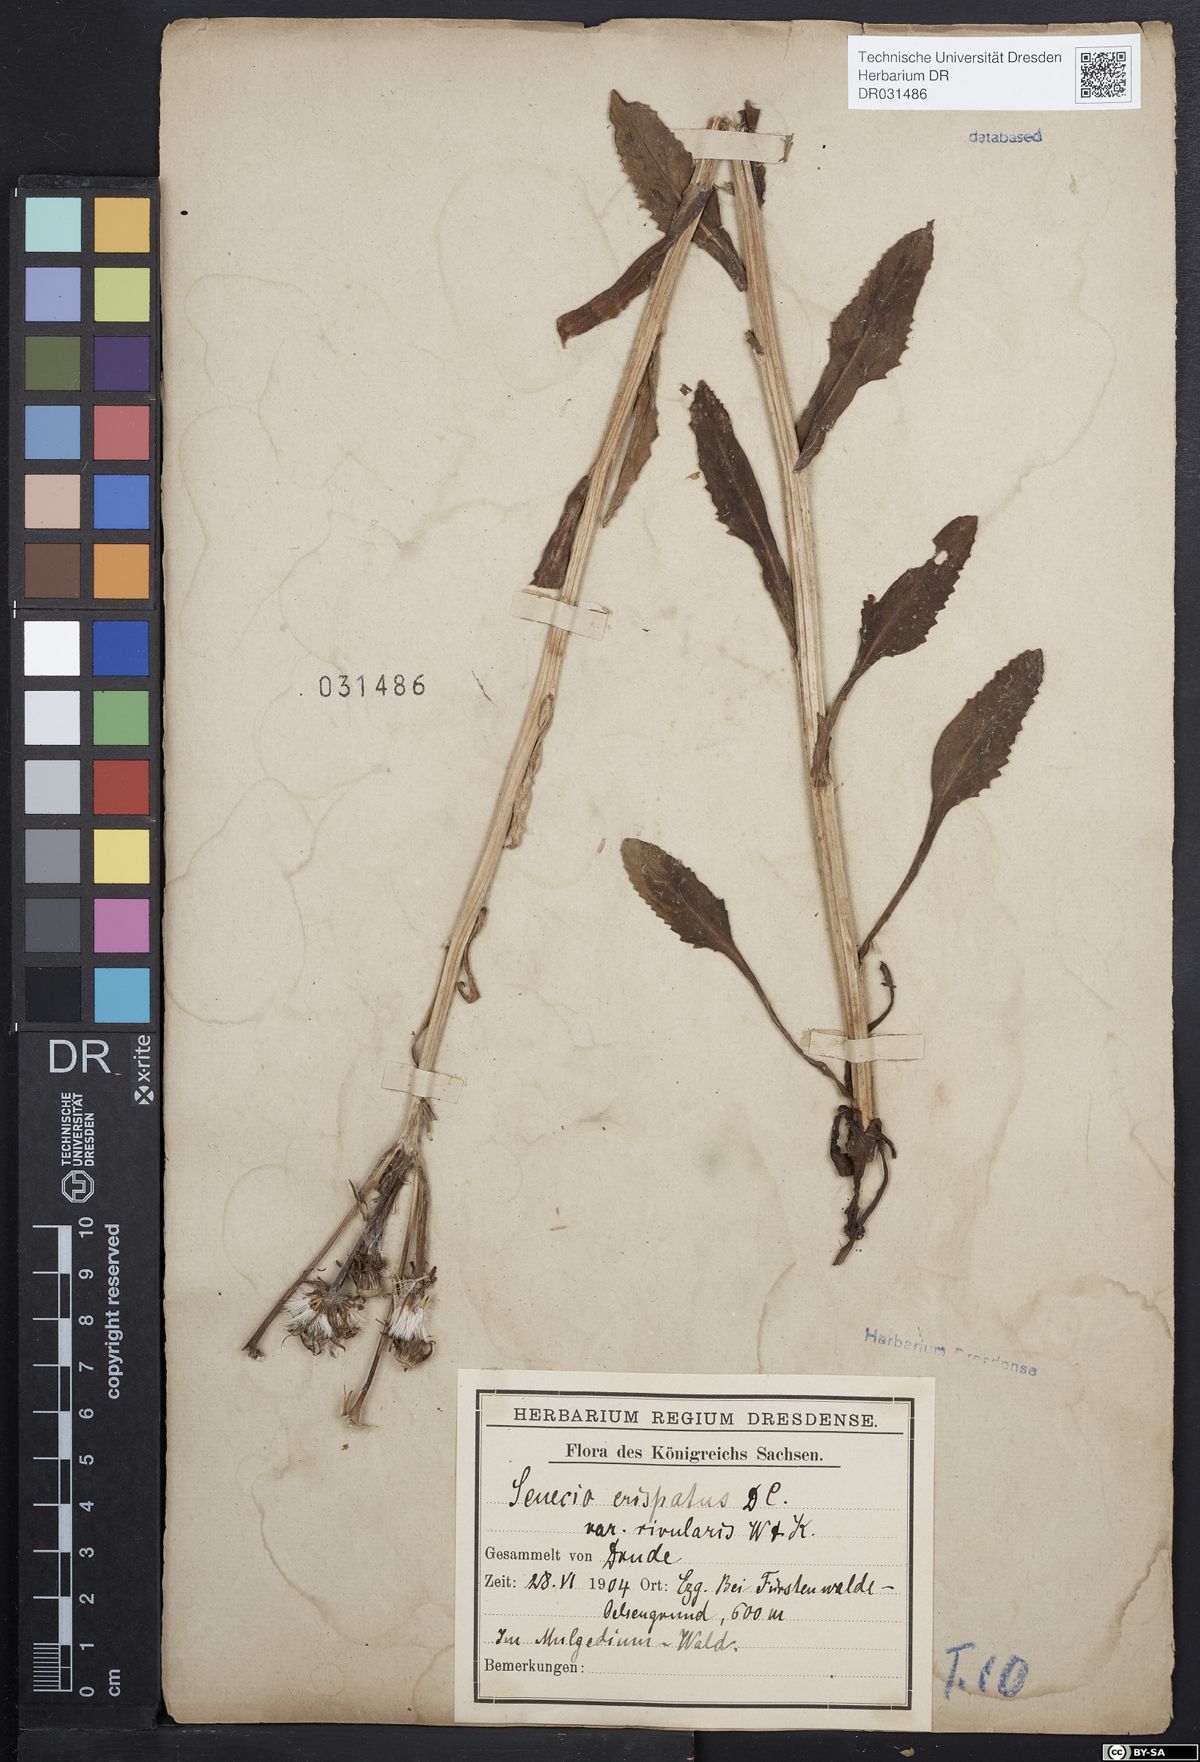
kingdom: Plantae
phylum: Tracheophyta
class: Magnoliopsida
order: Asterales
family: Asteraceae
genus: Tephroseris
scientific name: Tephroseris crispa
